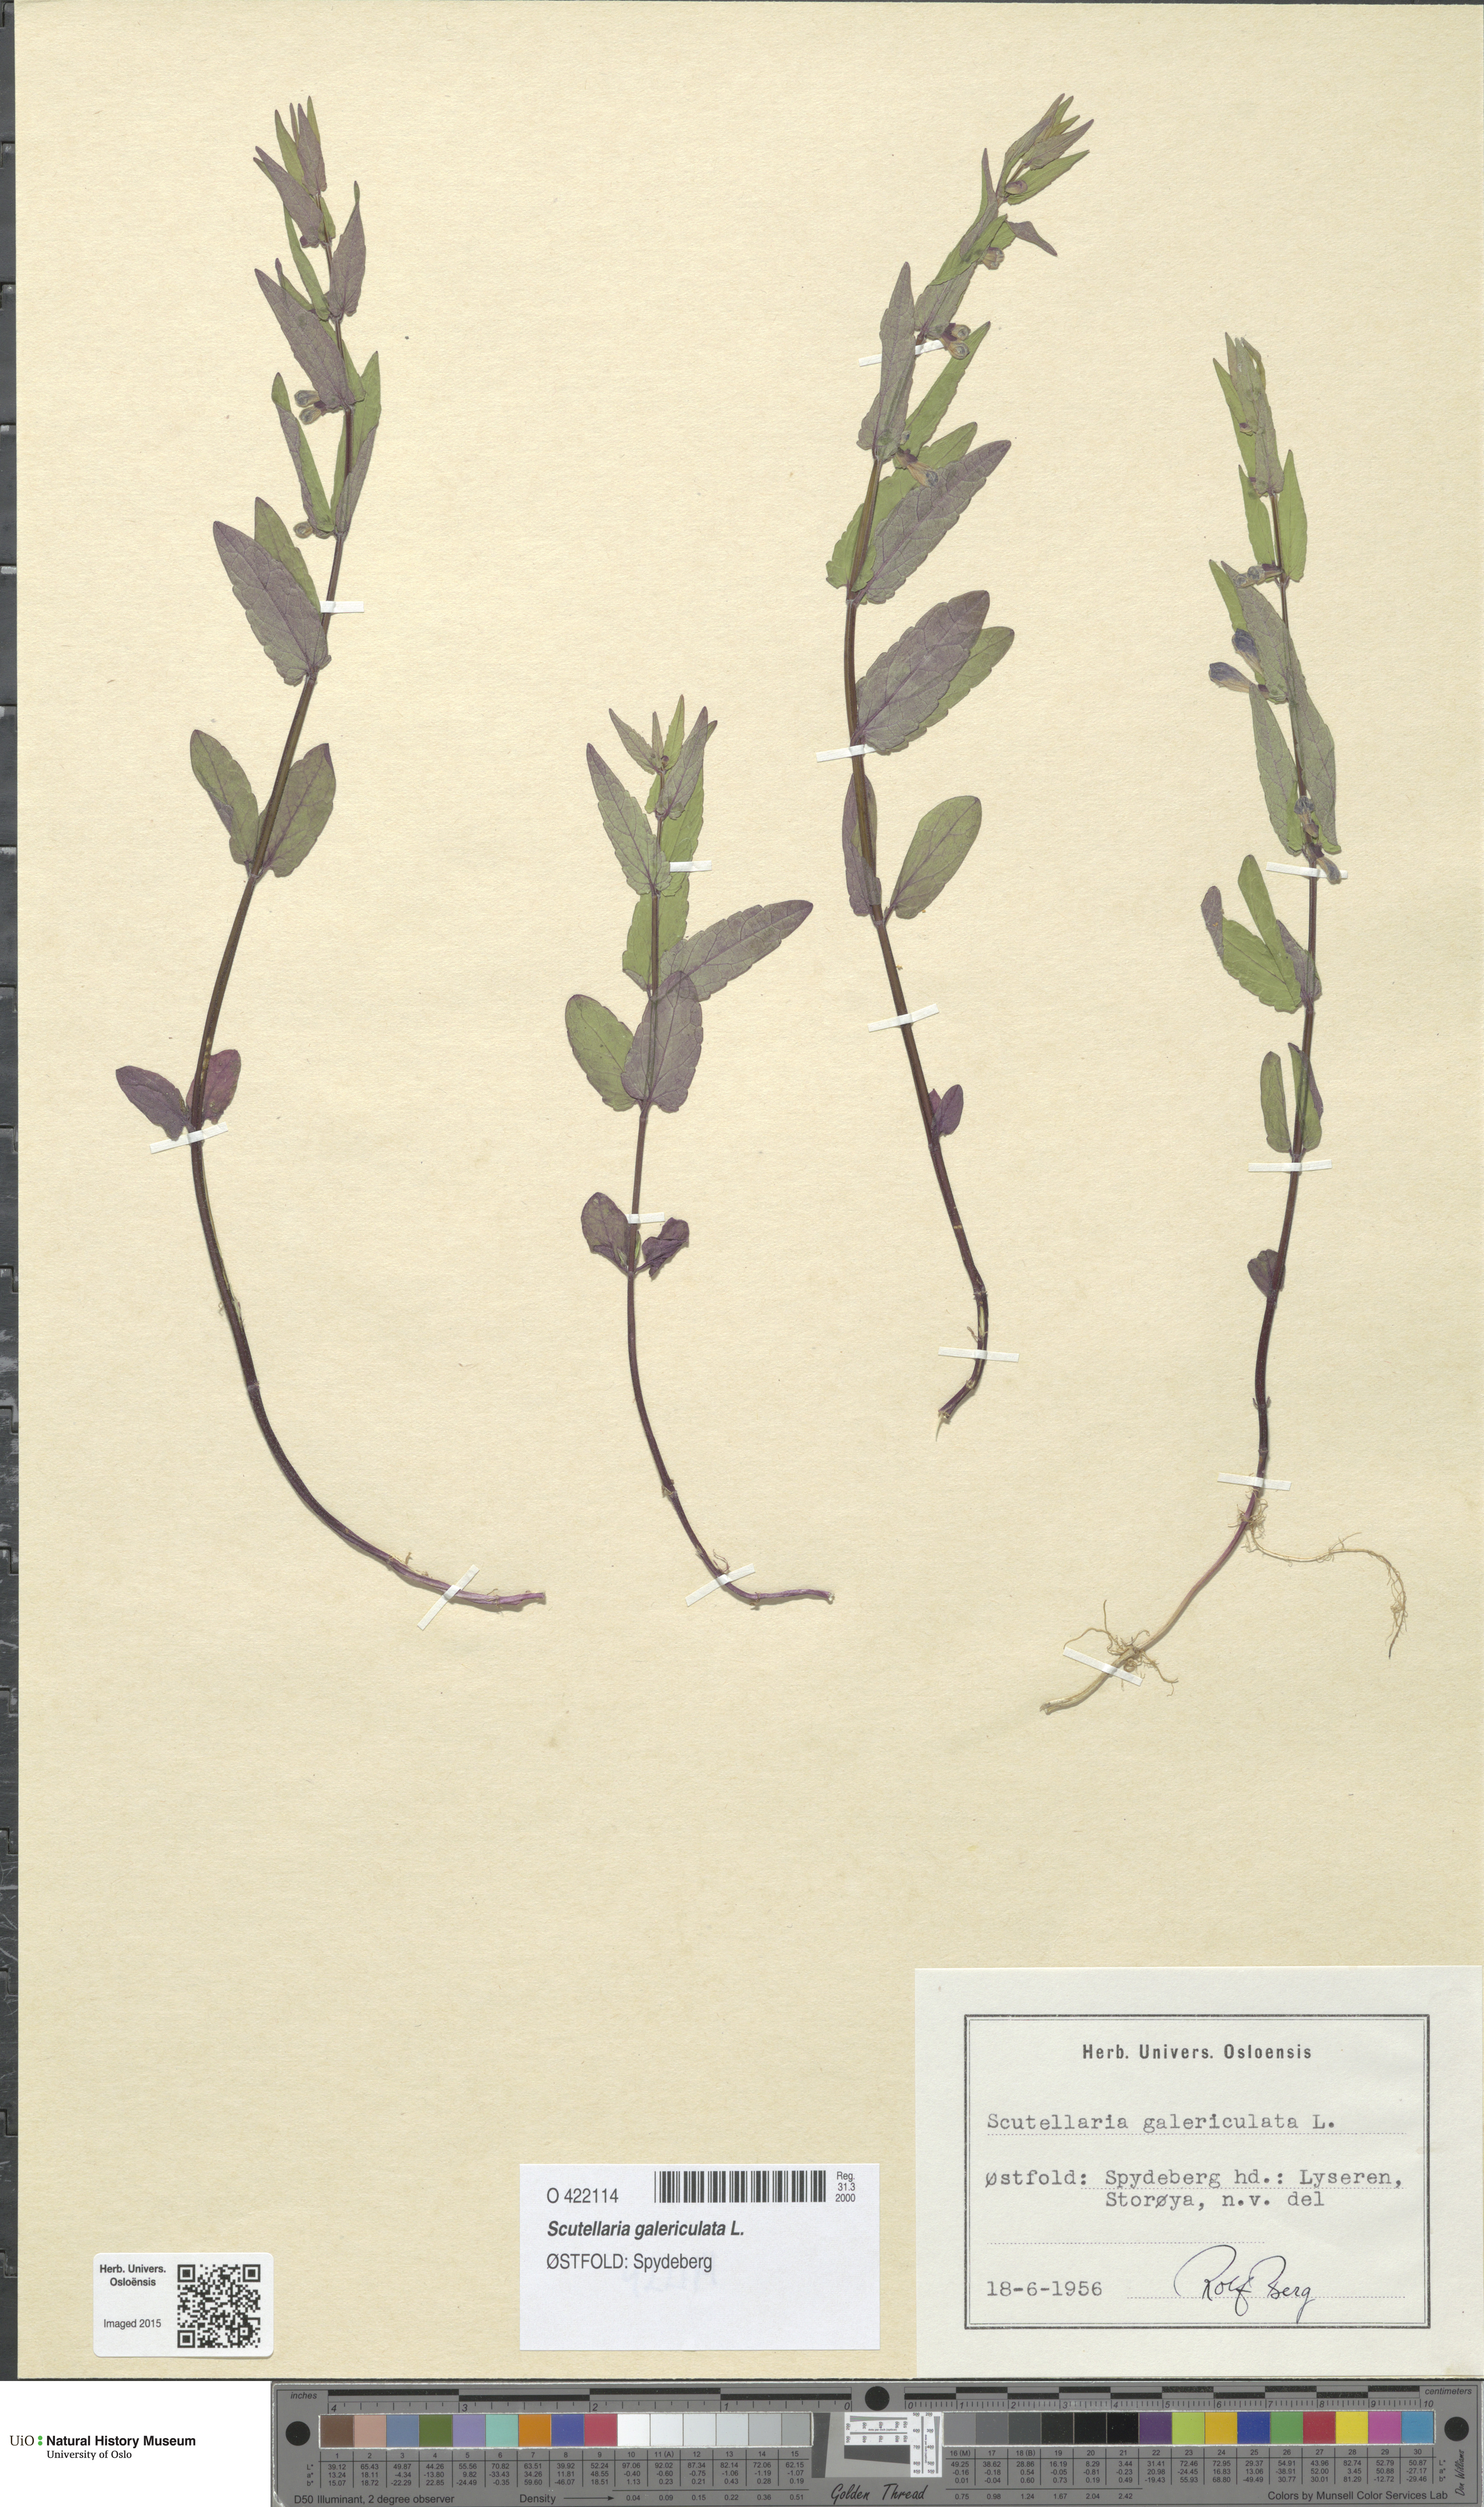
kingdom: Plantae
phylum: Tracheophyta
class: Magnoliopsida
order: Lamiales
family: Lamiaceae
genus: Scutellaria
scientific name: Scutellaria galericulata
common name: Skullcap
